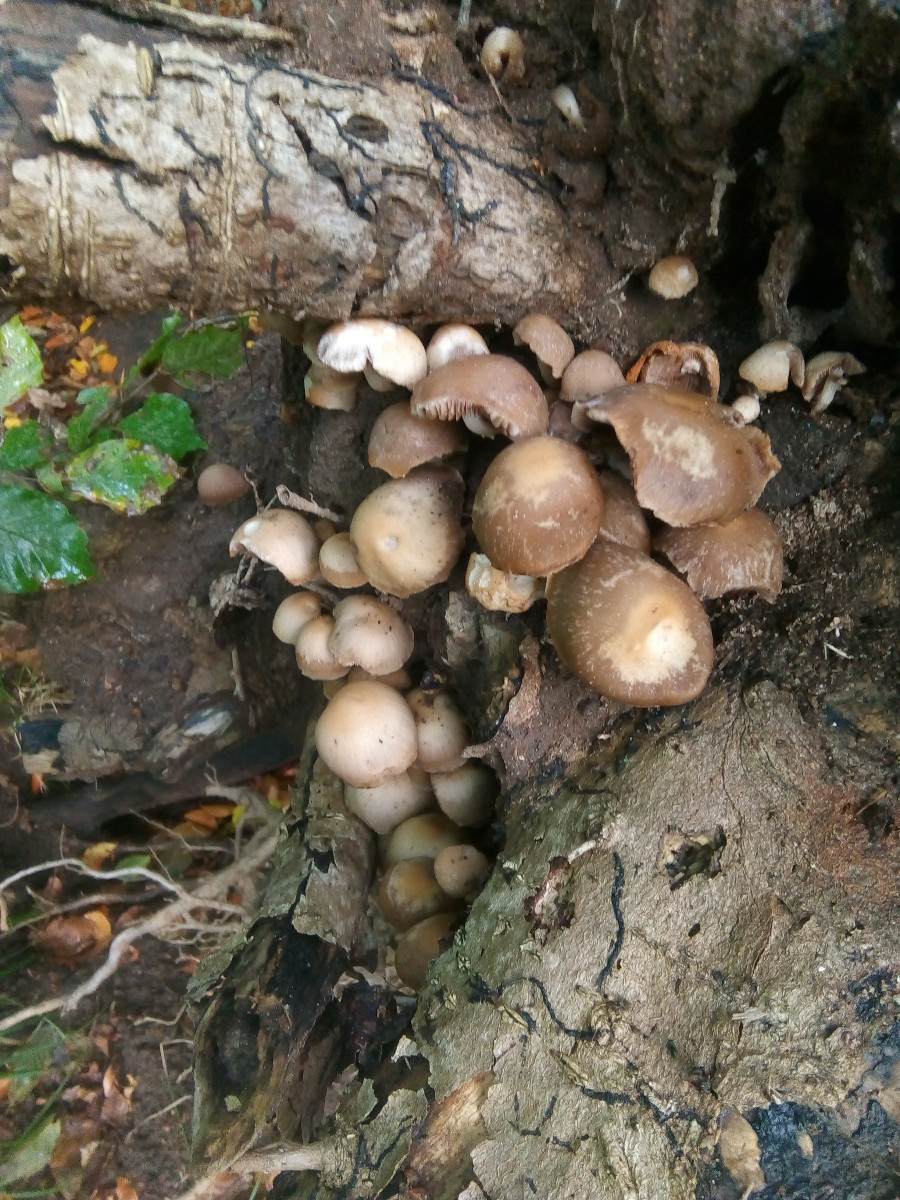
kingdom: Fungi
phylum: Basidiomycota
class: Agaricomycetes
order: Agaricales
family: Psathyrellaceae
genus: Psathyrella
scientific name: Psathyrella piluliformis
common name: lysstokket mørkhat
